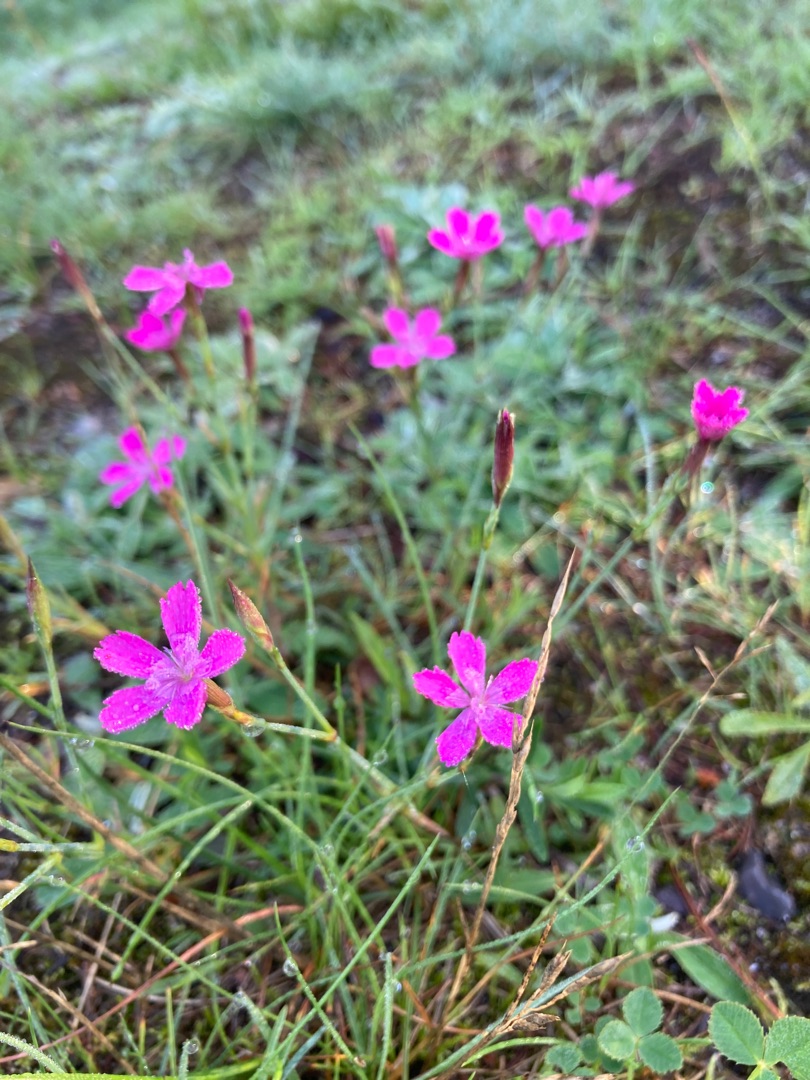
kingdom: Plantae
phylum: Tracheophyta
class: Magnoliopsida
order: Caryophyllales
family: Caryophyllaceae
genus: Dianthus
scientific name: Dianthus deltoides
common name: Bakke-nellike
